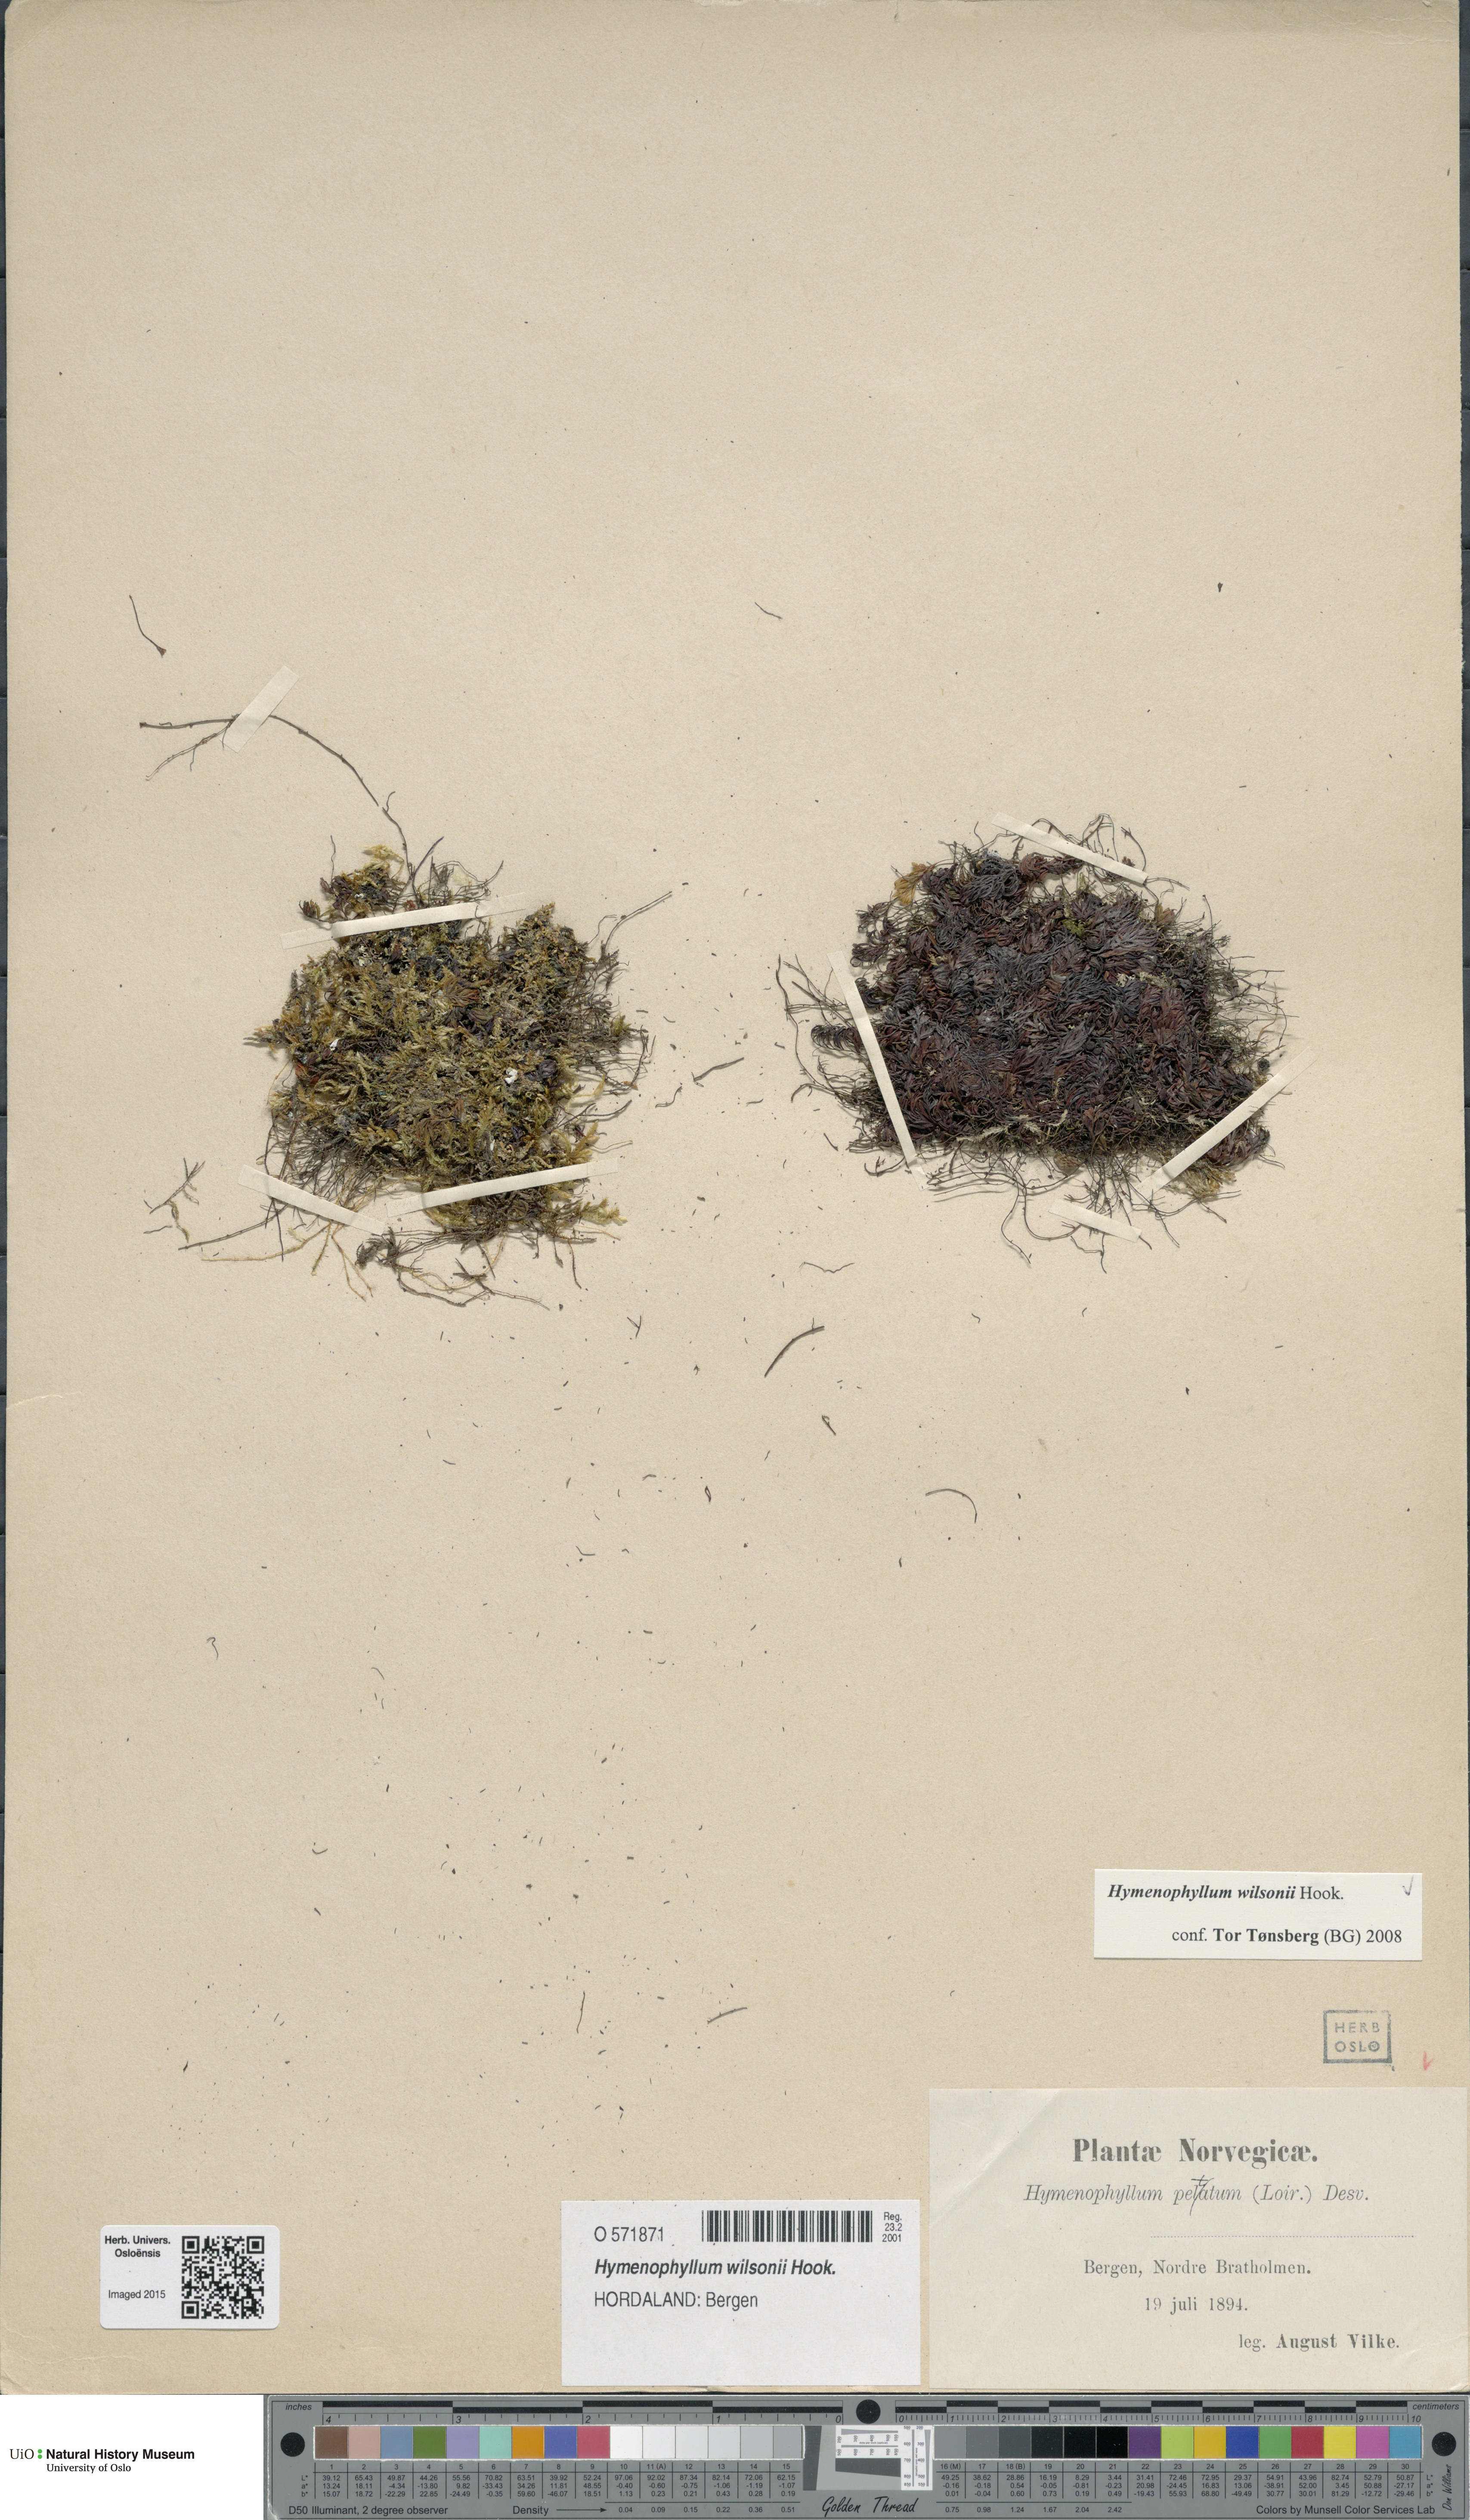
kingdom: Plantae
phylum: Tracheophyta
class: Polypodiopsida
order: Hymenophyllales
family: Hymenophyllaceae
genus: Hymenophyllum
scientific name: Hymenophyllum peltatum
